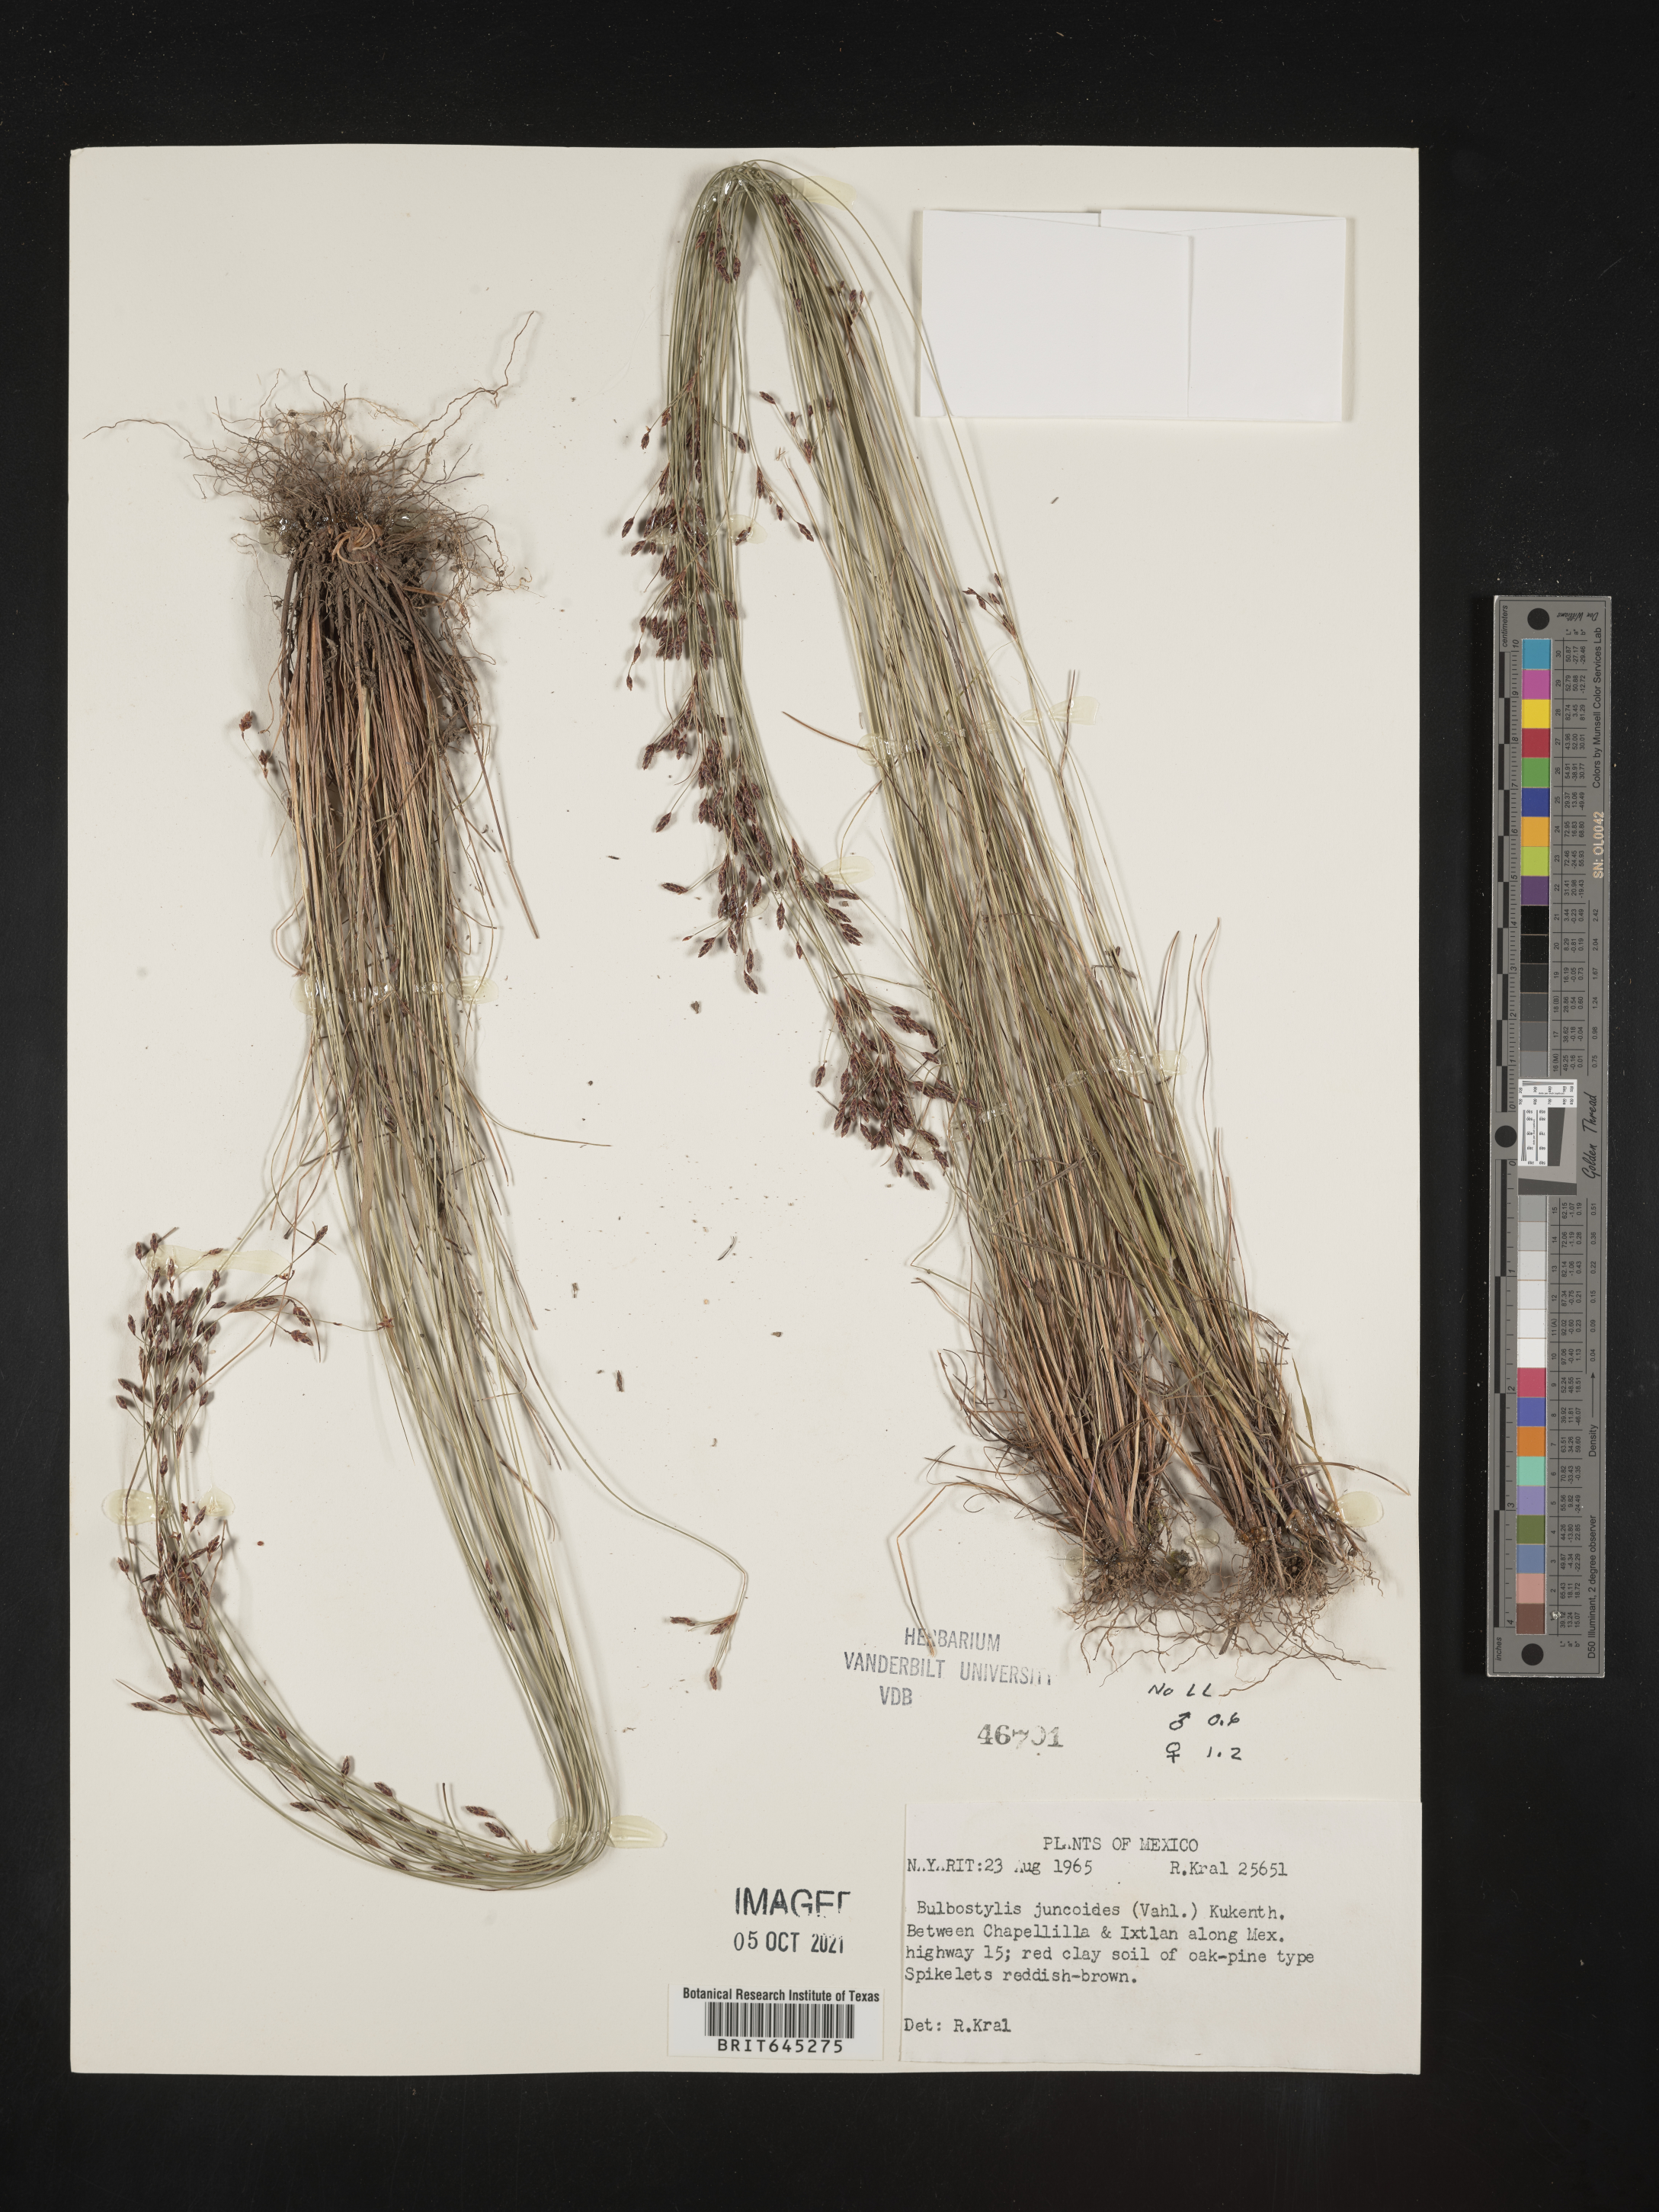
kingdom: Plantae
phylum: Tracheophyta
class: Liliopsida
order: Poales
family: Cyperaceae
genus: Bulbostylis
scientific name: Bulbostylis juncoides
